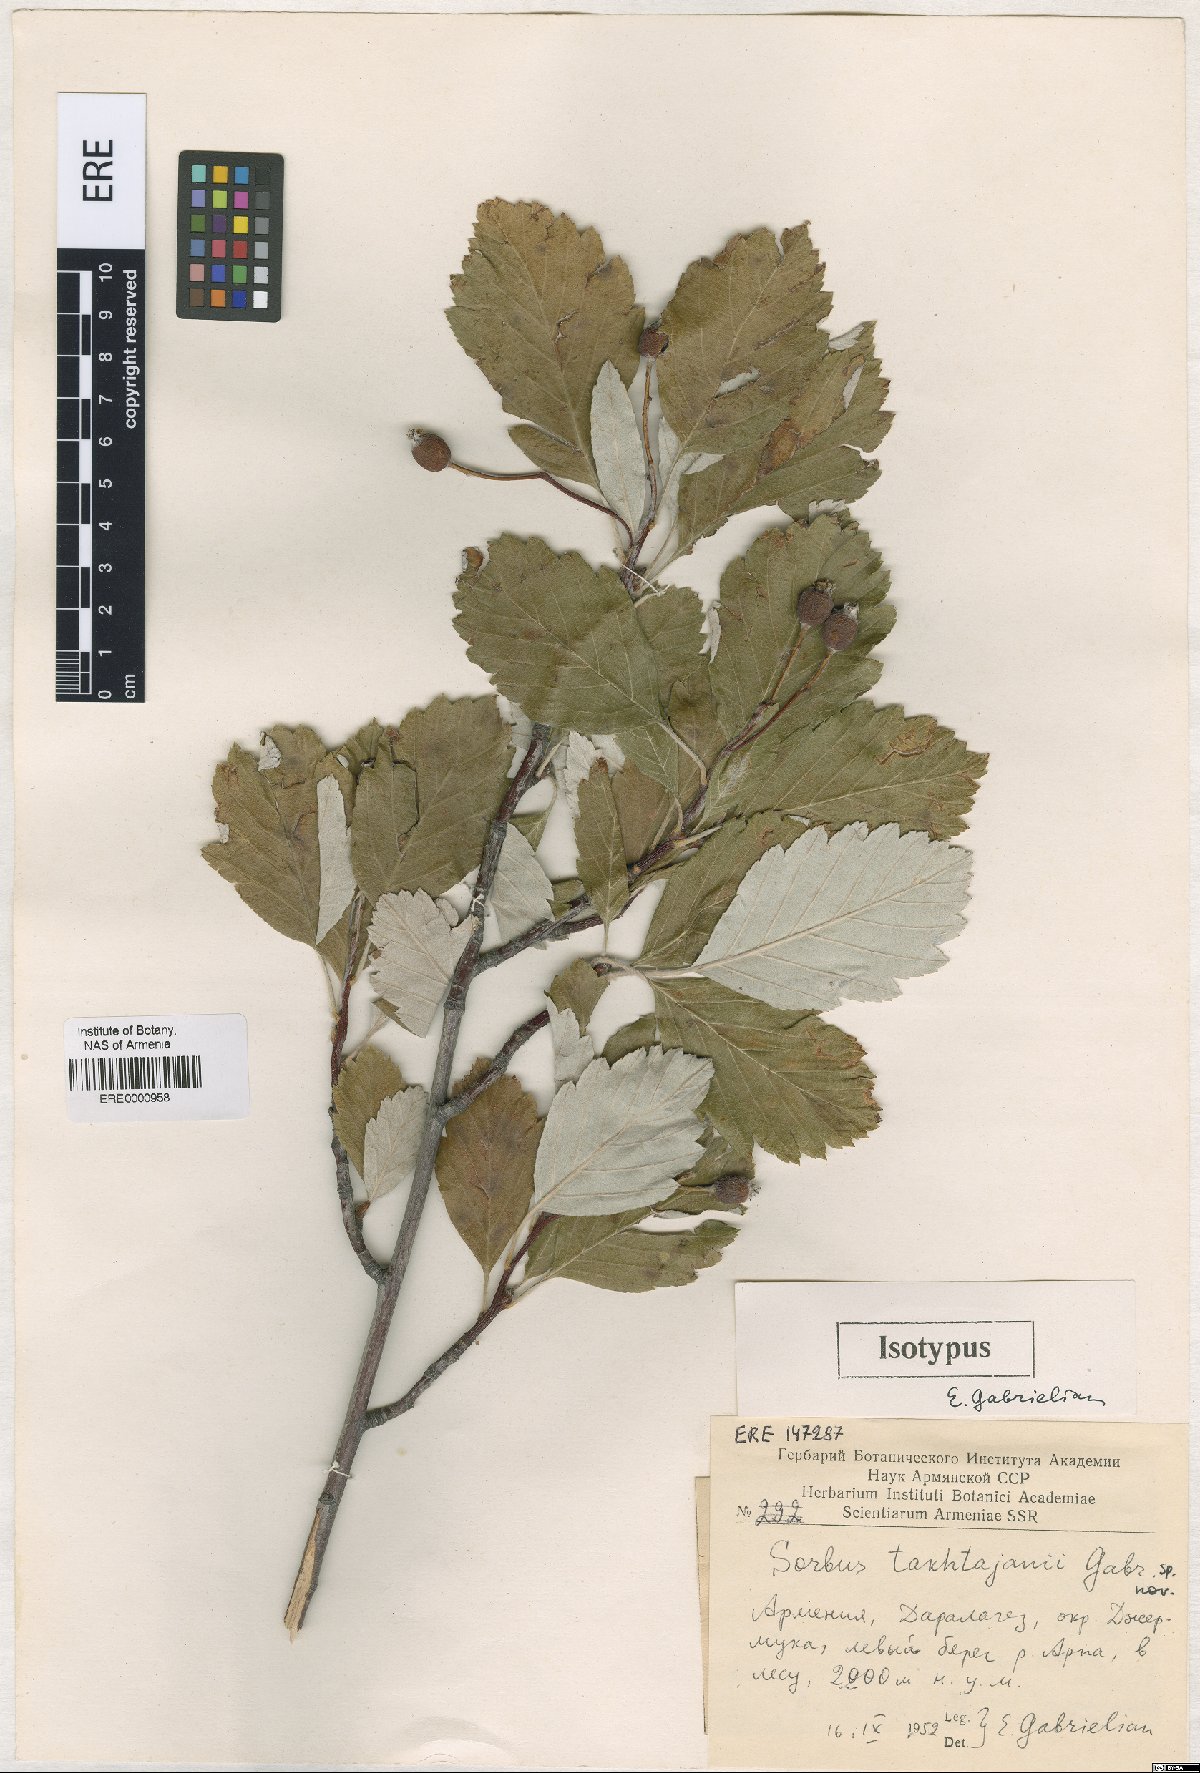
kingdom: Plantae
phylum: Tracheophyta
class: Magnoliopsida
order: Rosales
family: Rosaceae
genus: Hedlundia
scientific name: Hedlundia takhtajanii
